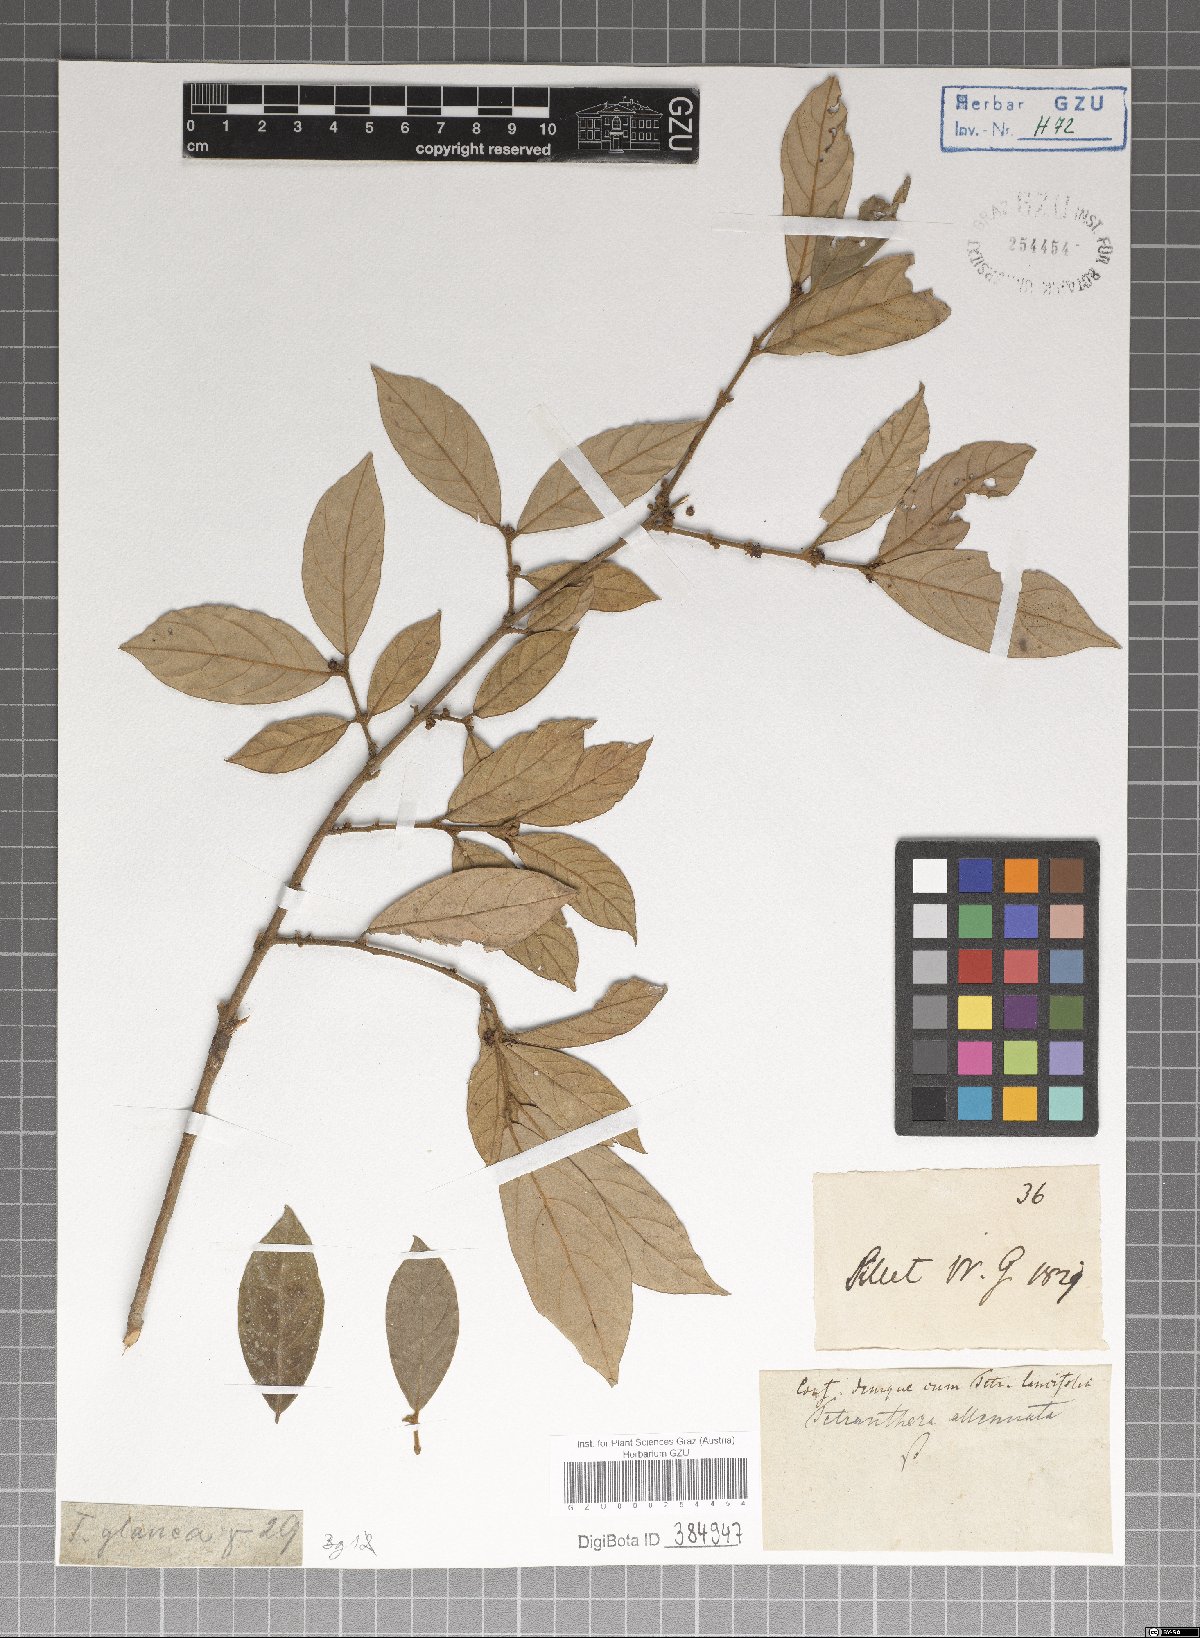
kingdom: Plantae
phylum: Tracheophyta
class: Magnoliopsida
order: Laurales
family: Lauraceae
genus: Litsea
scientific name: Litsea salicifolia
